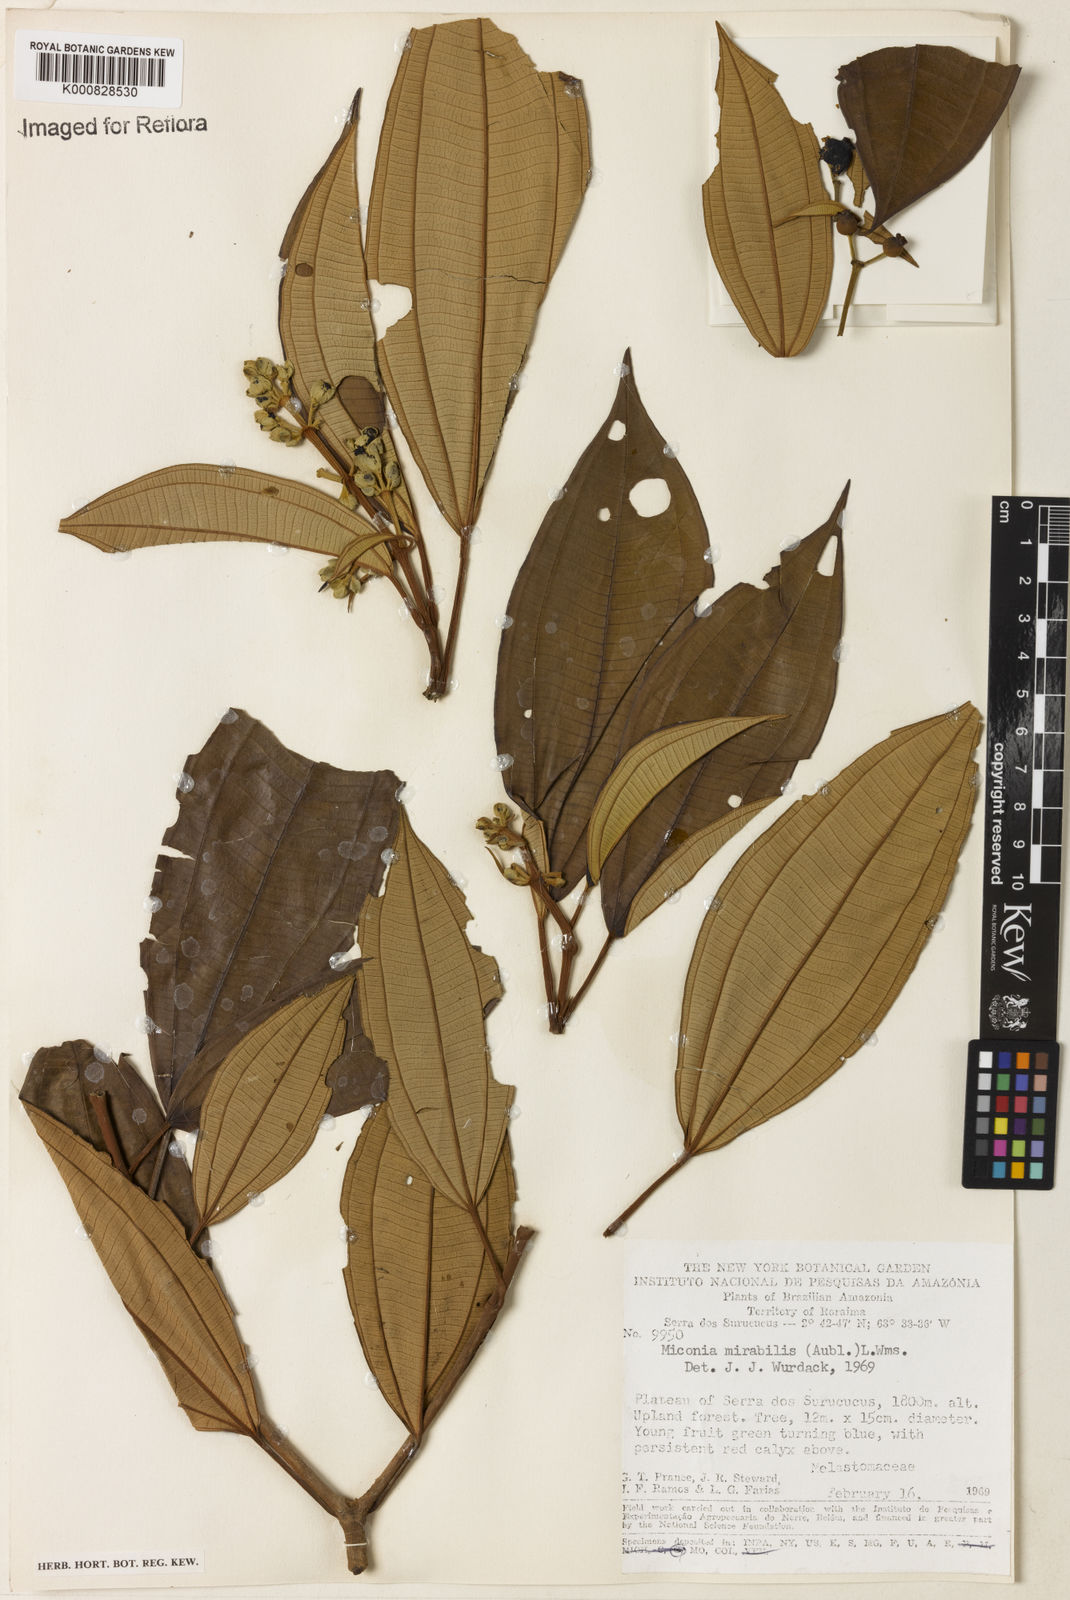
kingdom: Plantae
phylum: Tracheophyta
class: Magnoliopsida
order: Myrtales
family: Melastomataceae
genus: Miconia
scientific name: Miconia mirabilis
